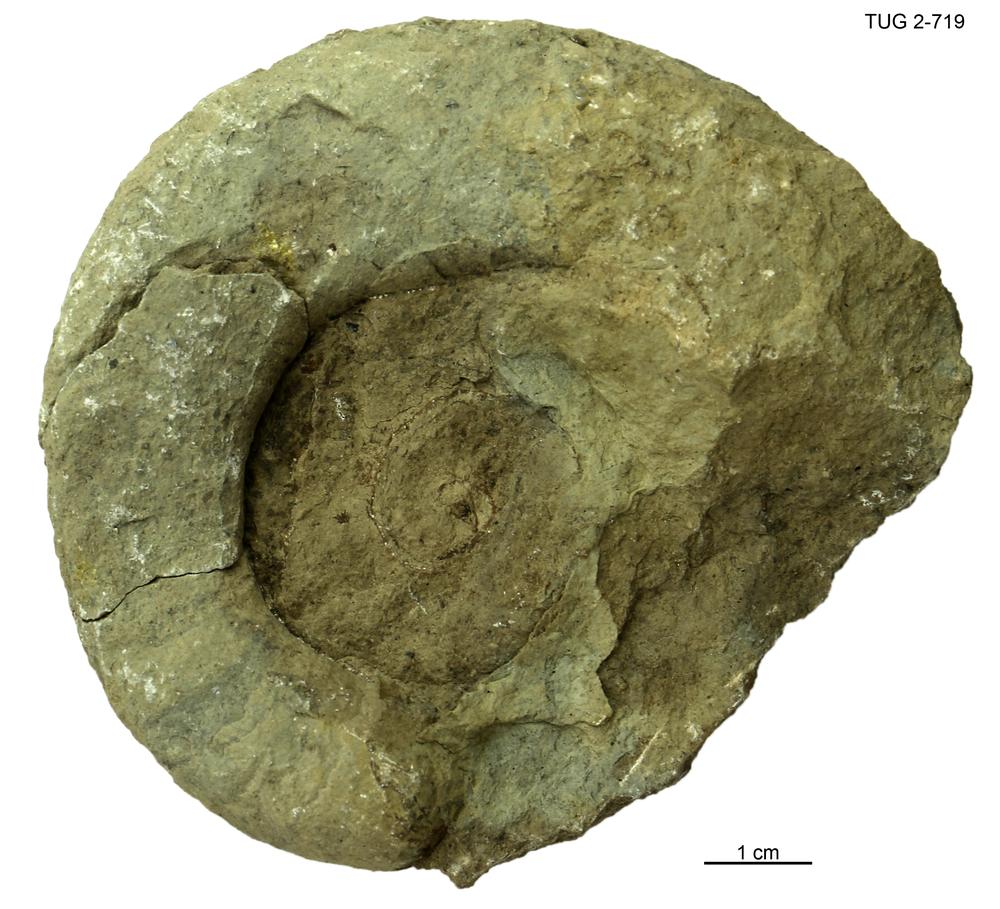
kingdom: Animalia
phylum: Mollusca
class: Cephalopoda
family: Trocholitidae
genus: Discoceras
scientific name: Discoceras
